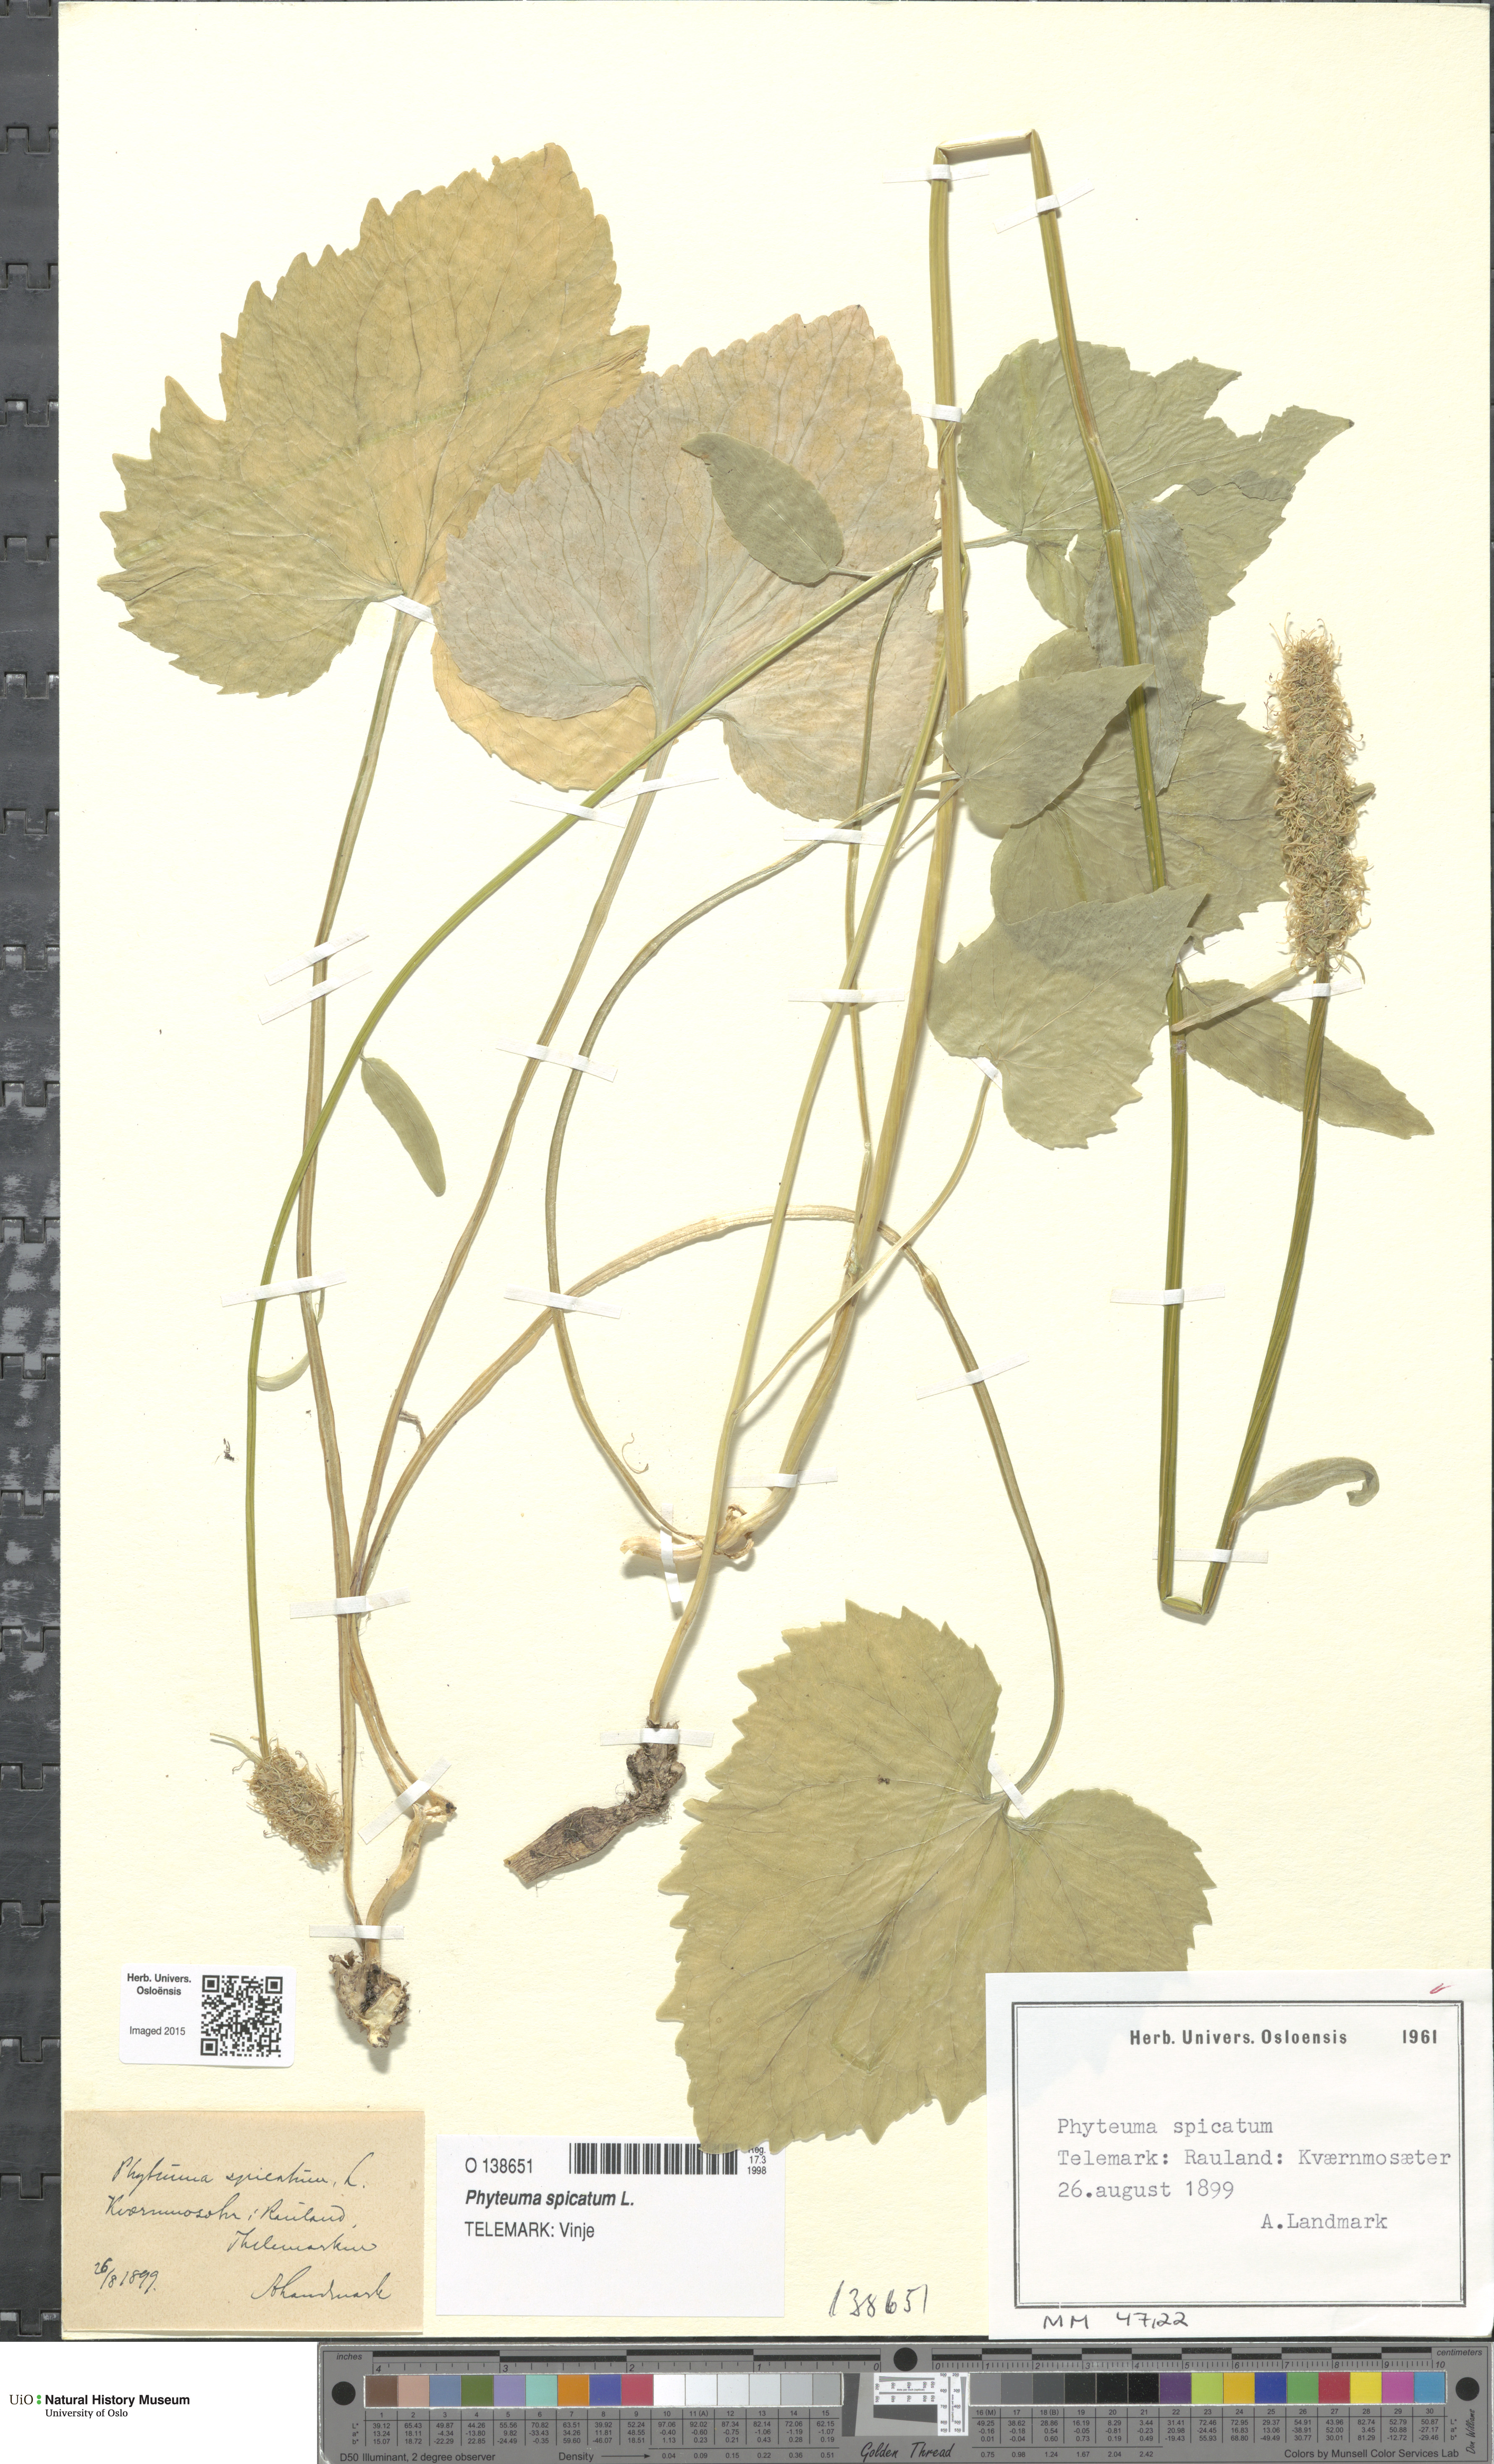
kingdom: Plantae
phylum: Tracheophyta
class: Magnoliopsida
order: Asterales
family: Campanulaceae
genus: Phyteuma
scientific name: Phyteuma spicatum
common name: Spiked rampion
